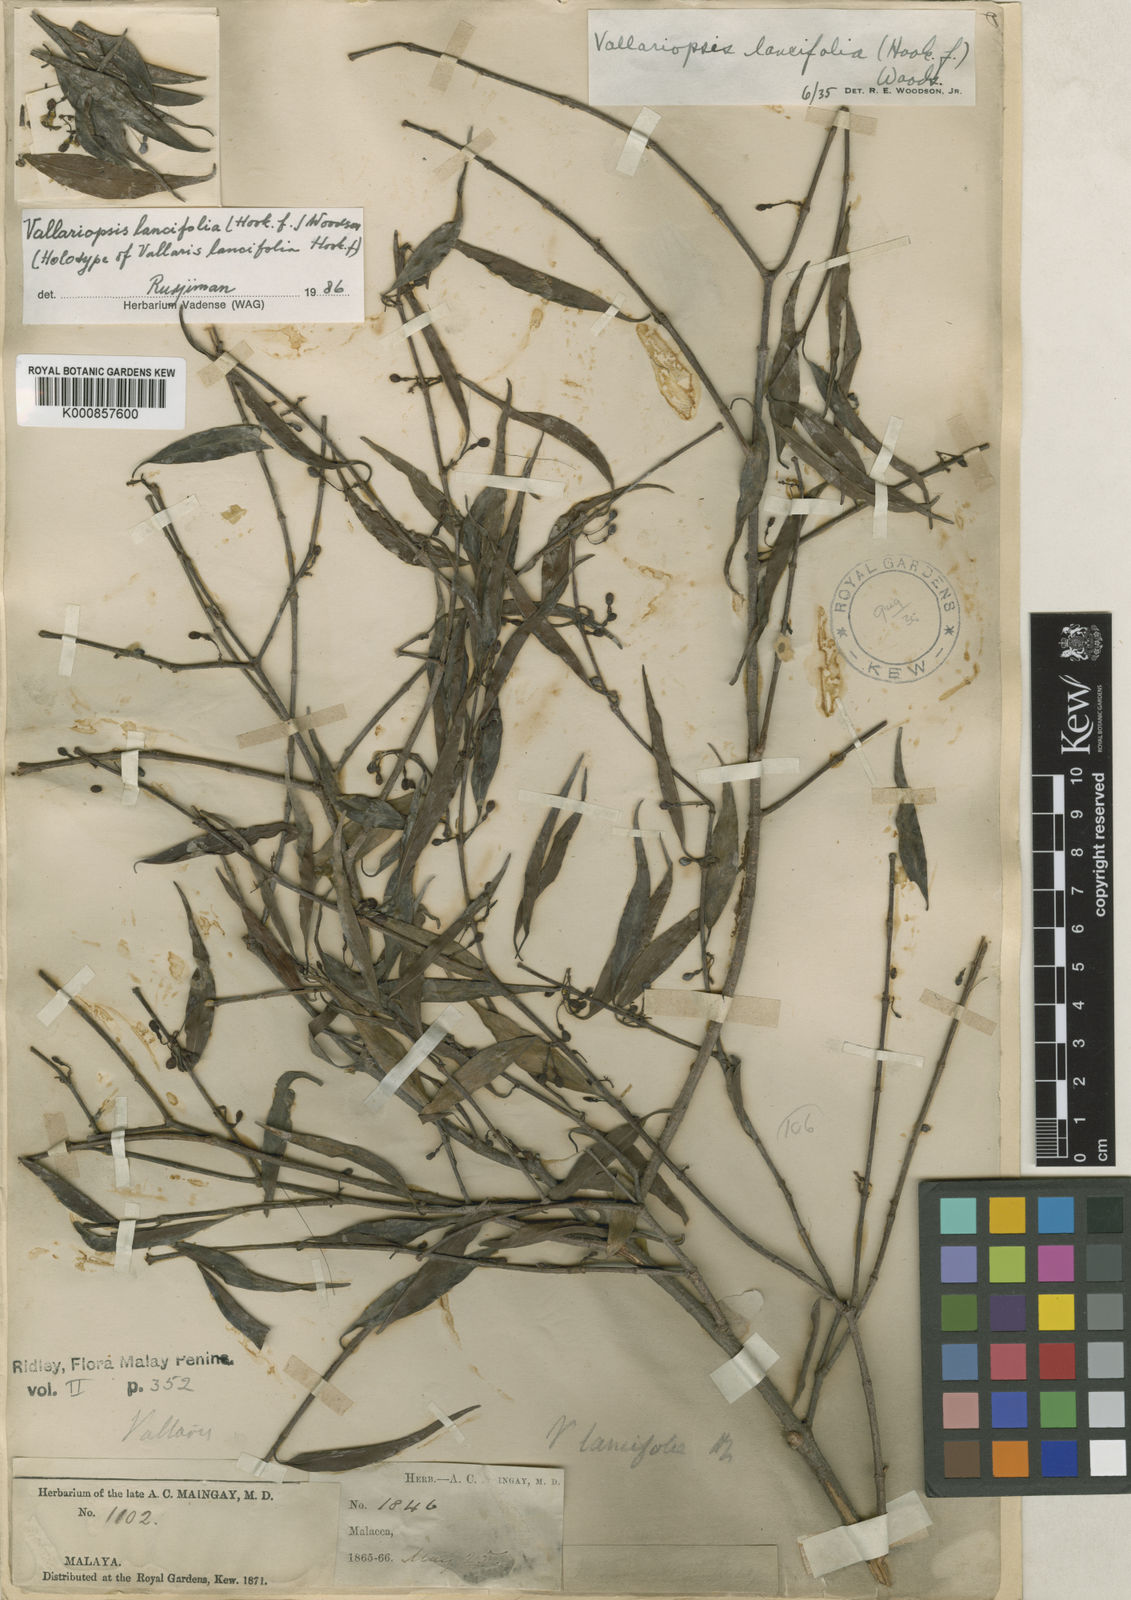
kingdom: Plantae
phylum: Tracheophyta
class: Magnoliopsida
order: Gentianales
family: Apocynaceae
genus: Micrechites
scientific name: Micrechites lancifolius
